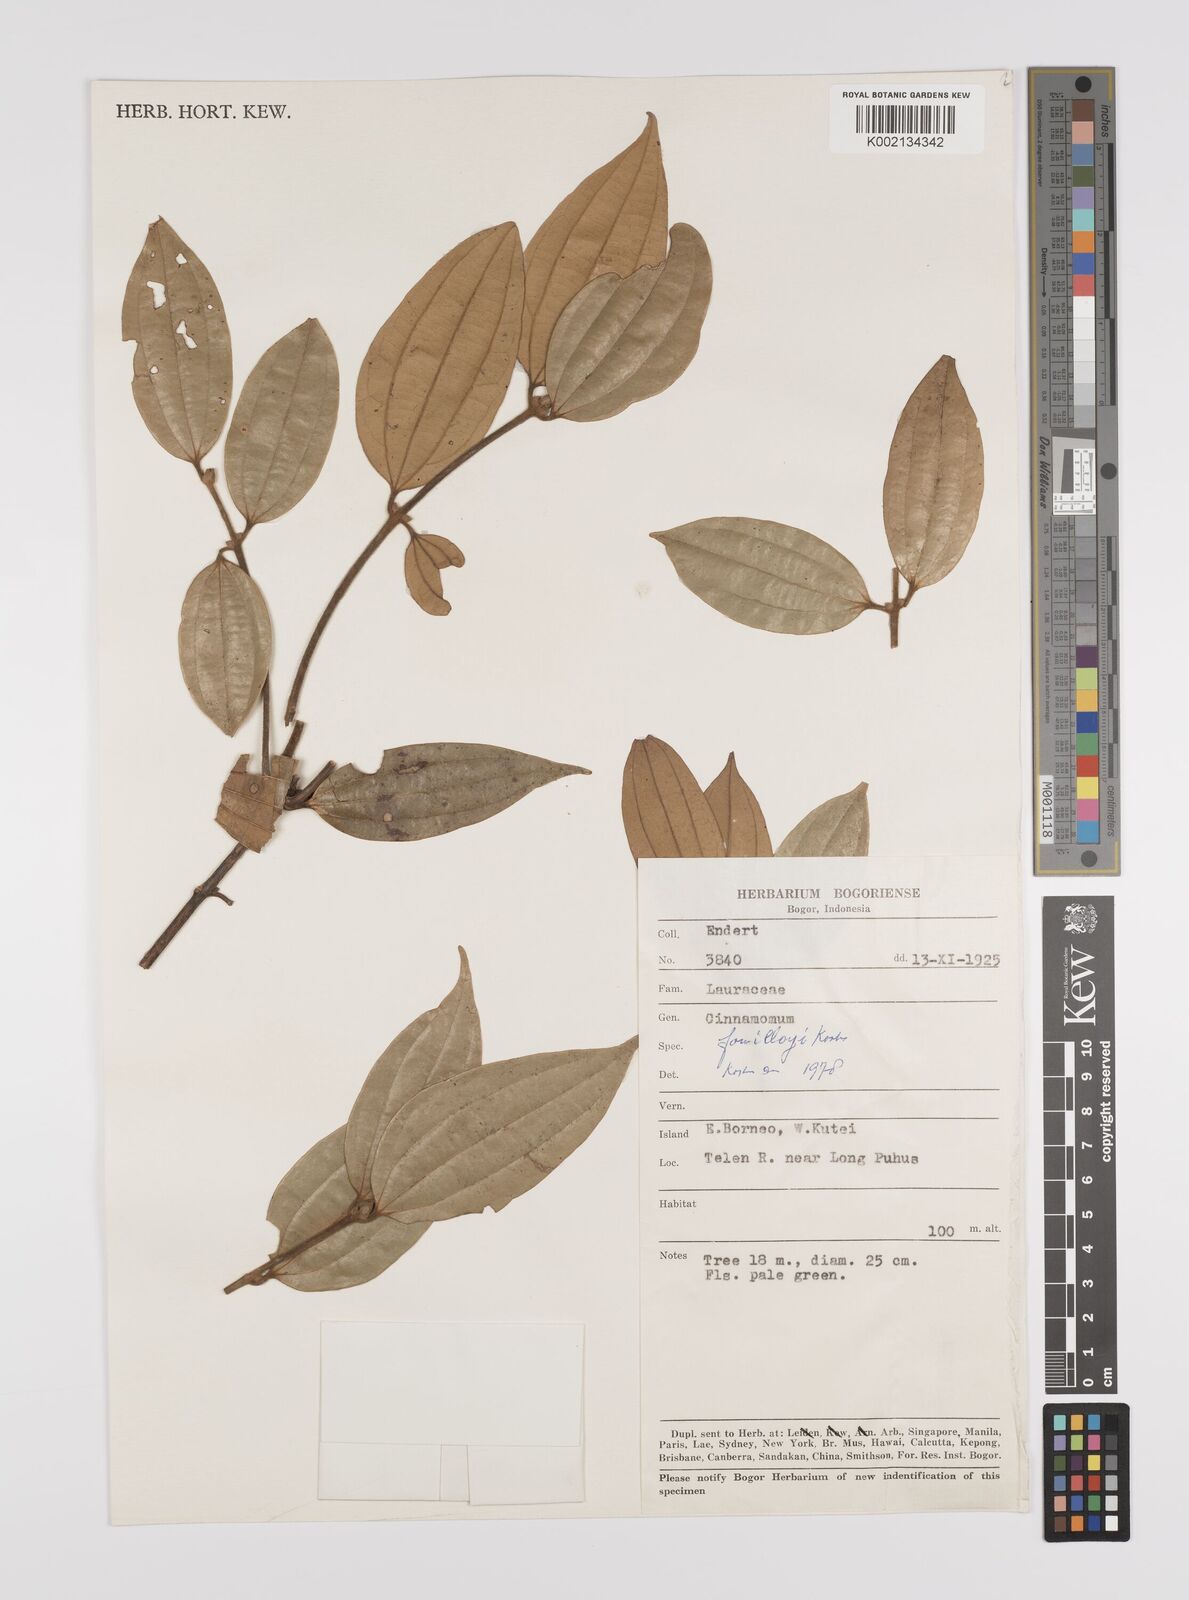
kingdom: Plantae
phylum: Tracheophyta
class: Magnoliopsida
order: Laurales
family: Lauraceae
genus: Cinnamomum
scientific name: Cinnamomum tahijanum
